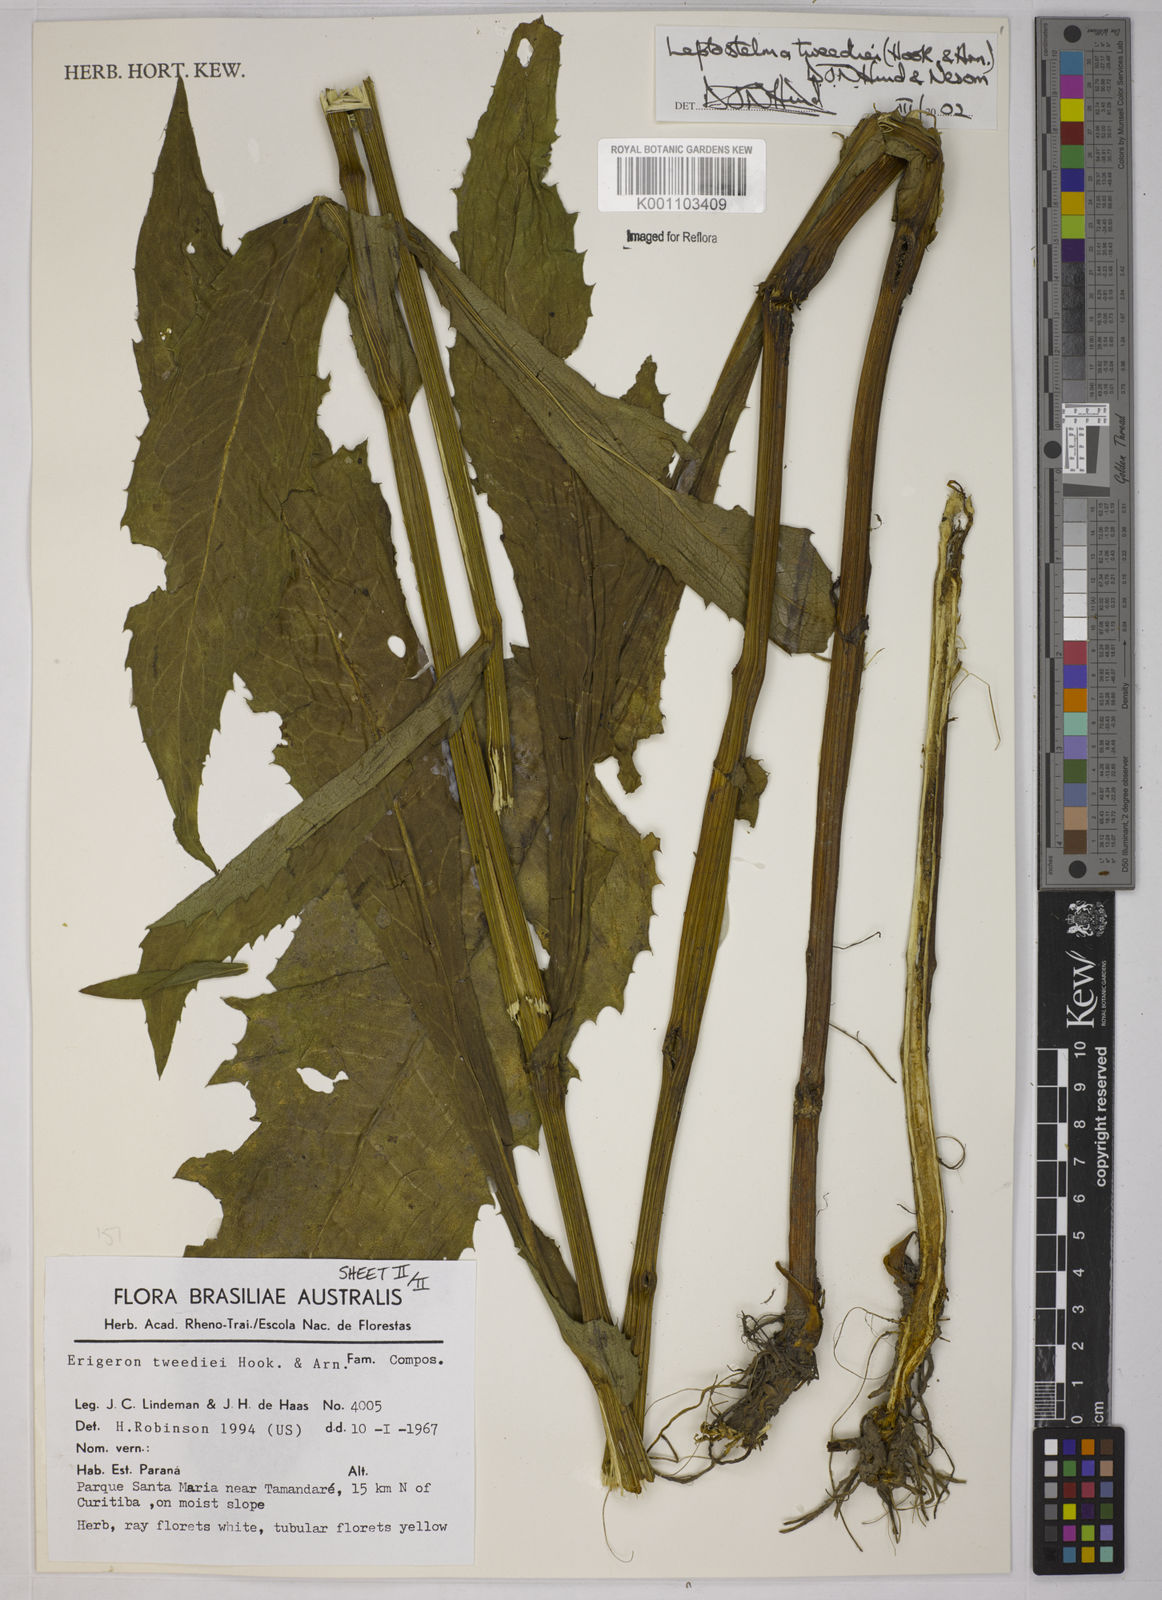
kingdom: Plantae
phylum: Tracheophyta
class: Magnoliopsida
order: Asterales
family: Asteraceae
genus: Leptostelma
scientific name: Leptostelma tweediei
